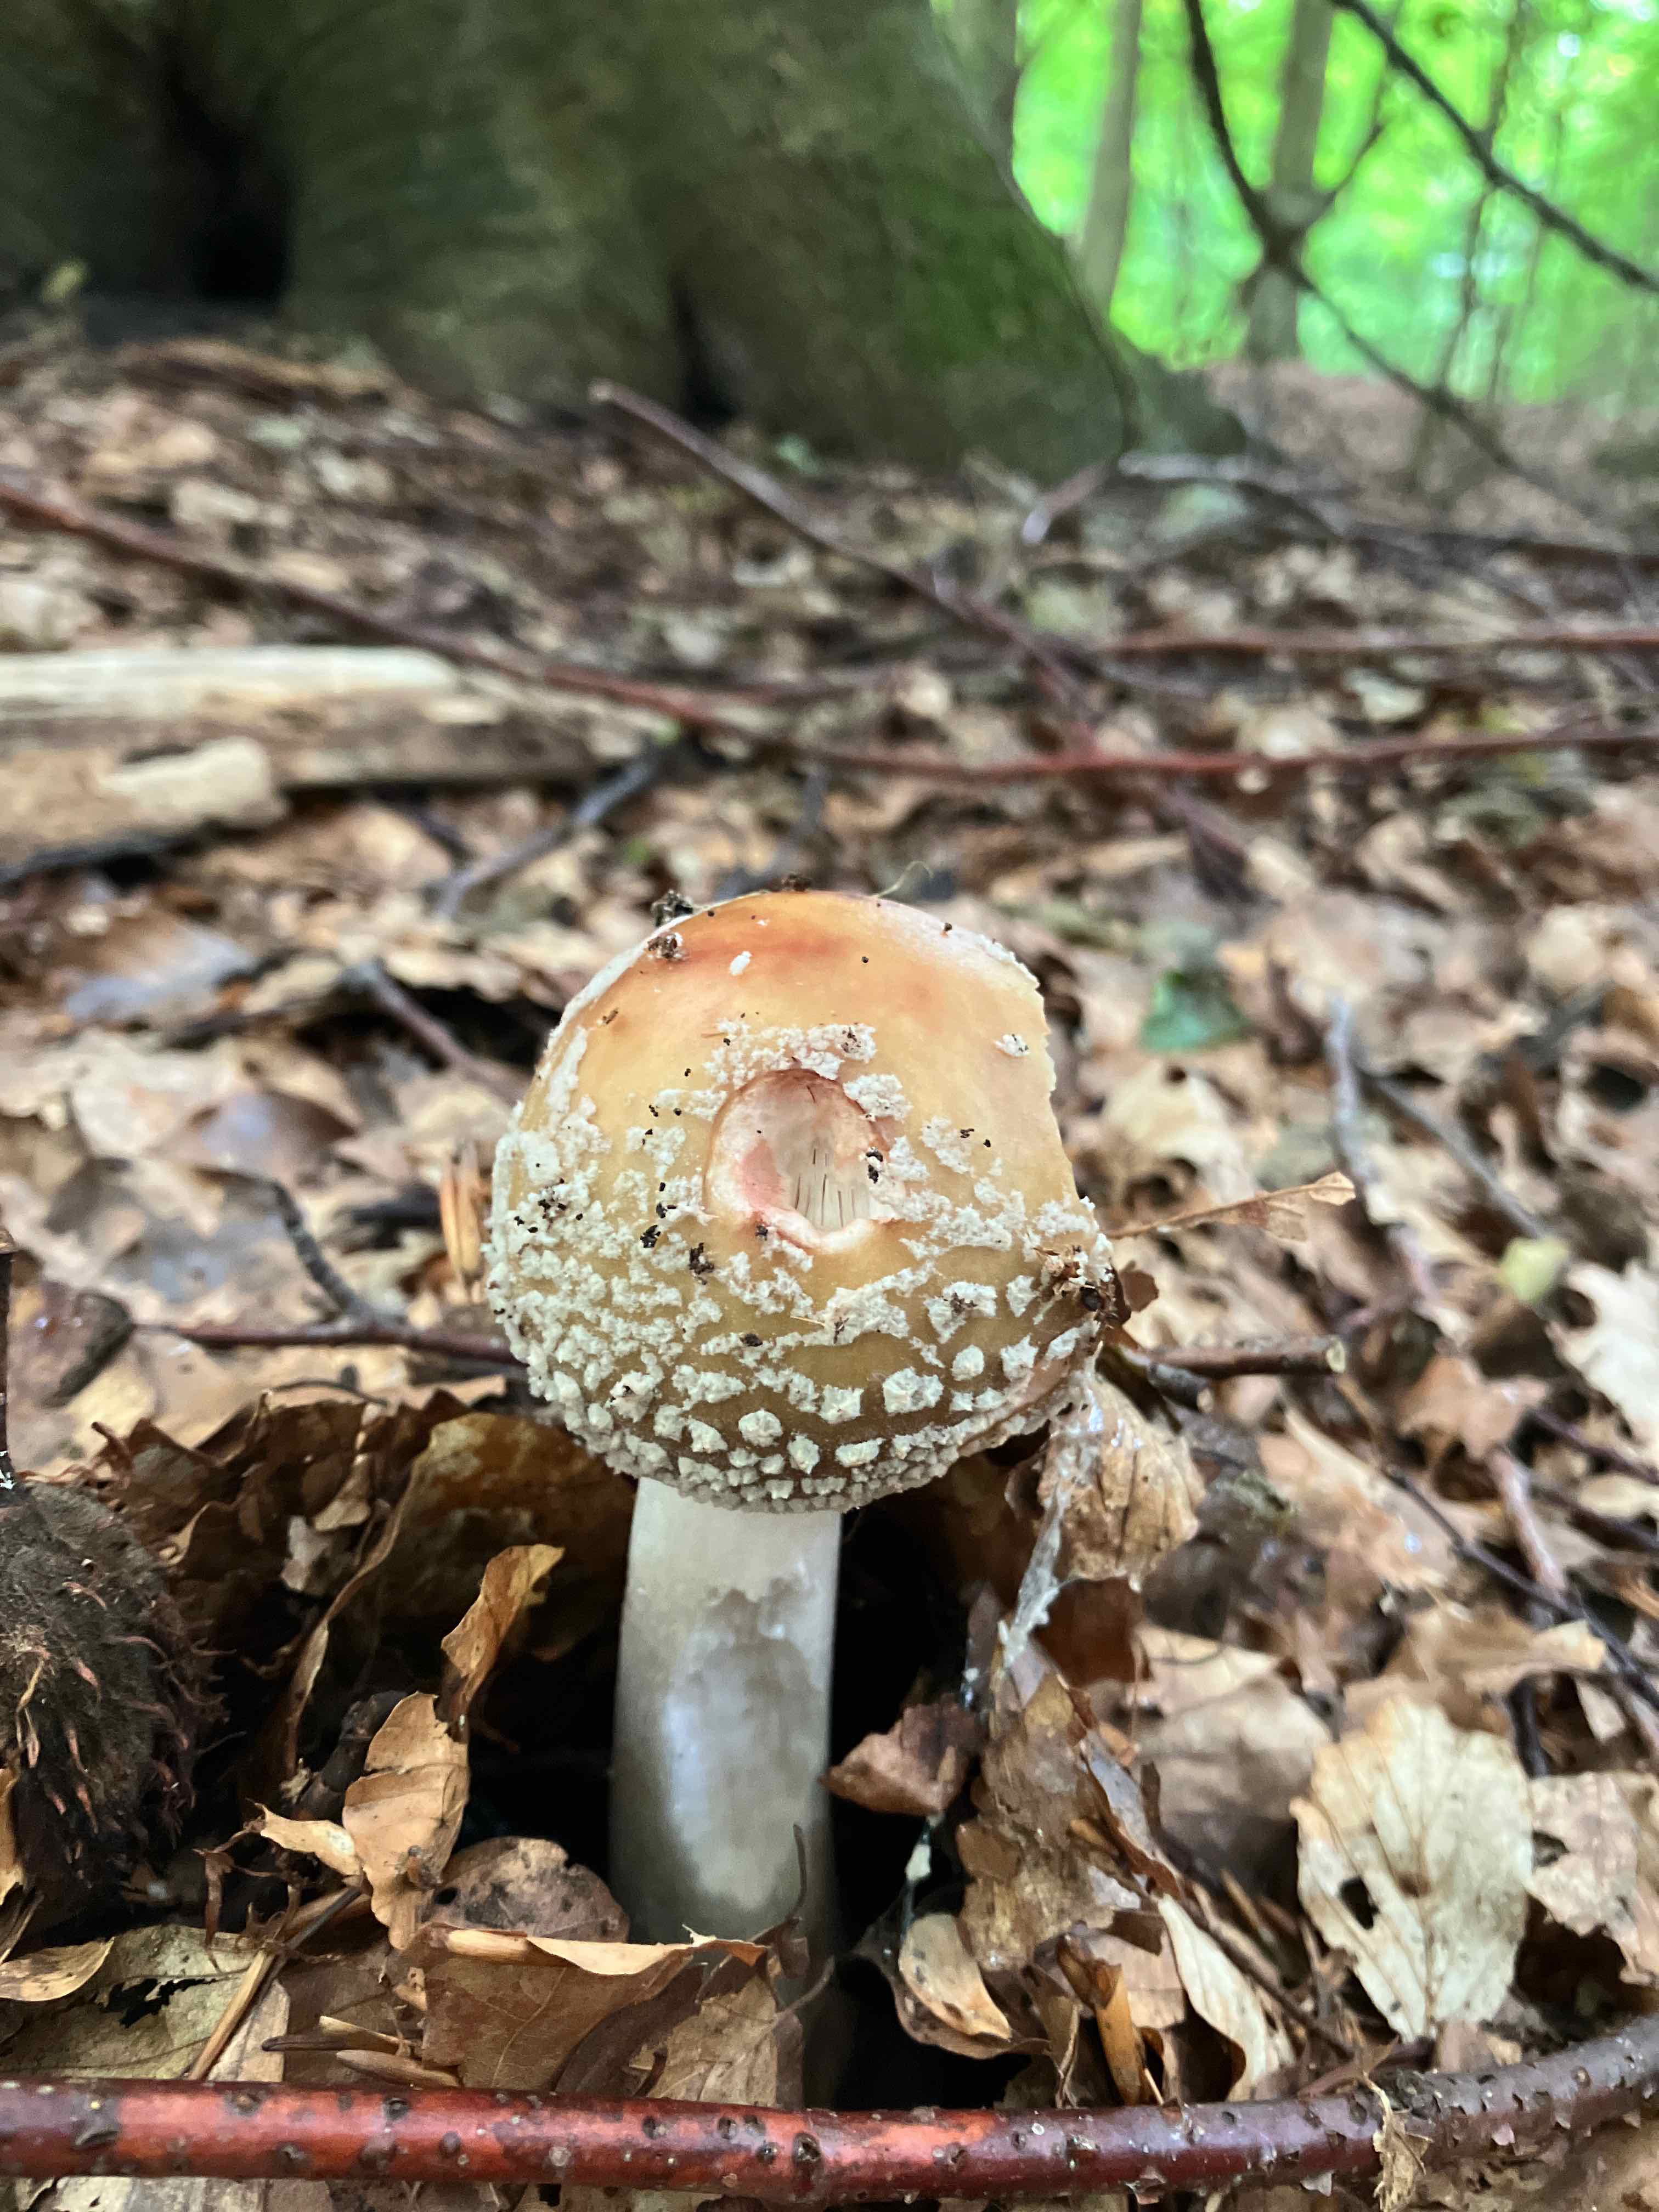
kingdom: Fungi
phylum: Basidiomycota
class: Agaricomycetes
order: Agaricales
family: Amanitaceae
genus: Amanita
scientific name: Amanita rubescens
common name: rødmende fluesvamp
